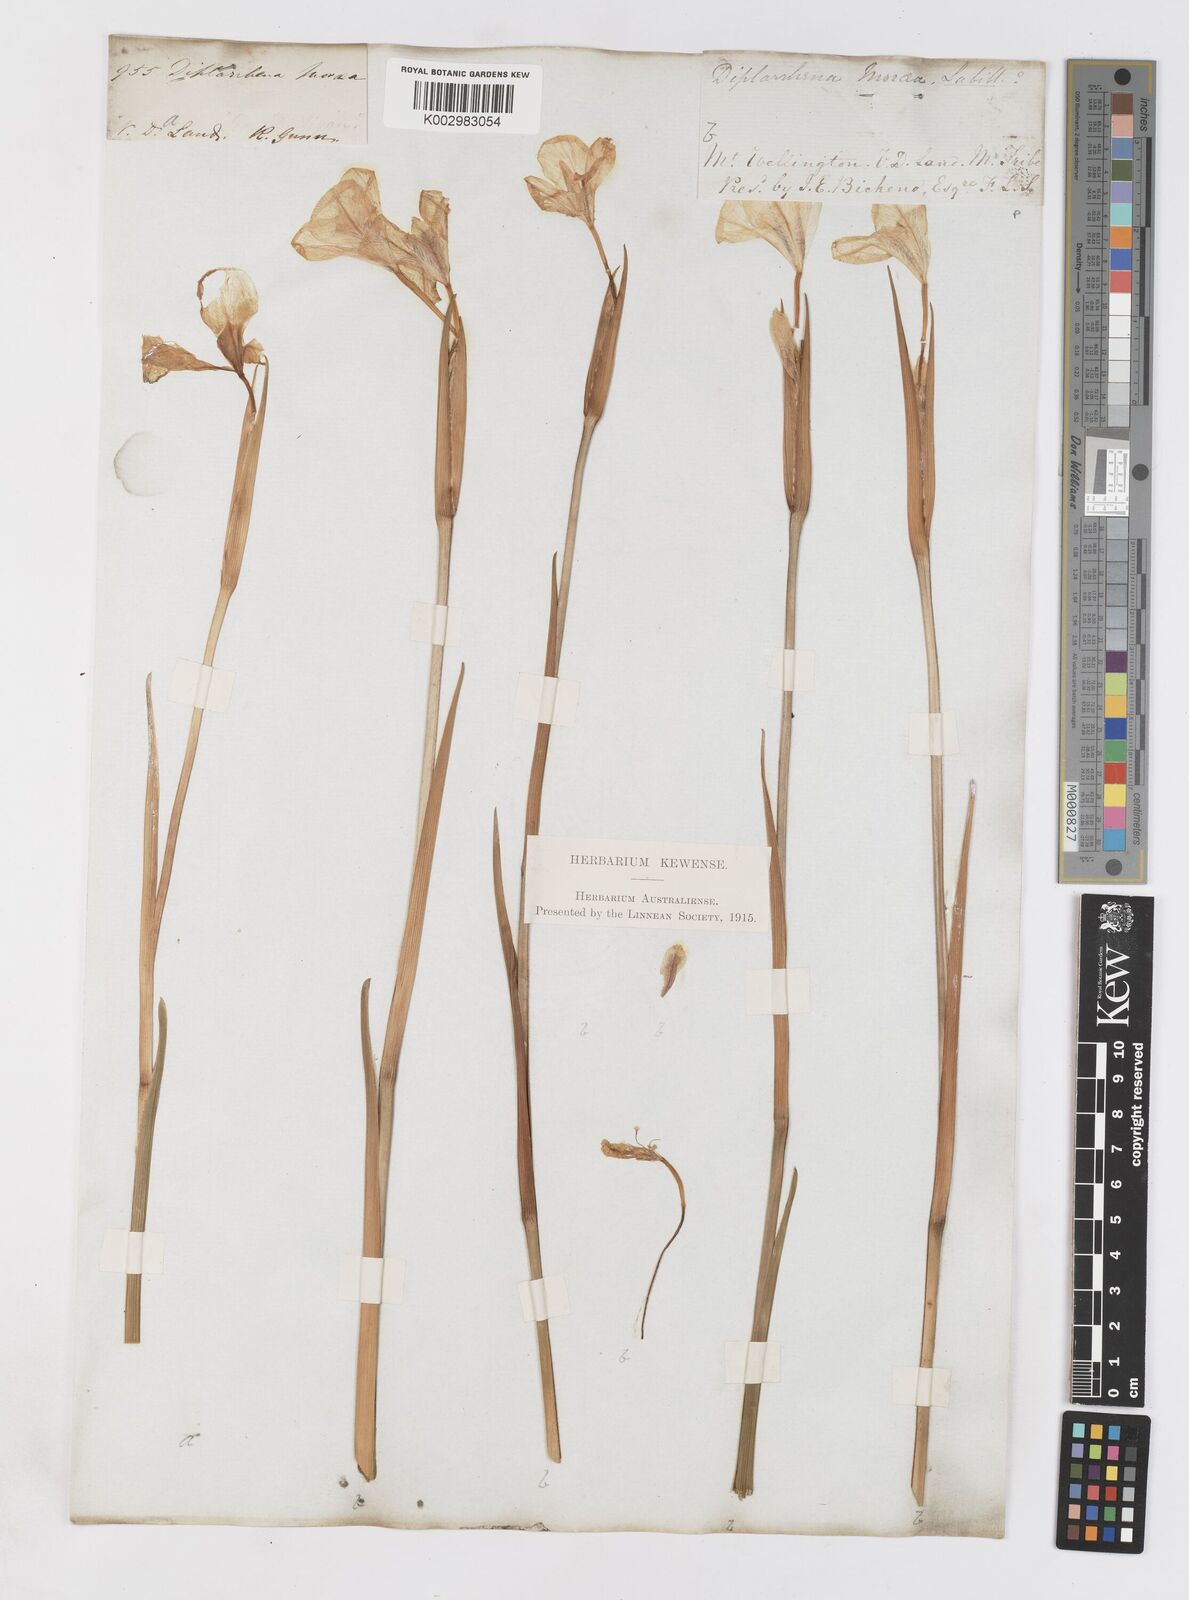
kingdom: Plantae
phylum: Tracheophyta
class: Liliopsida
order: Asparagales
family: Iridaceae
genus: Diplarrena
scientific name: Diplarrena moraea
